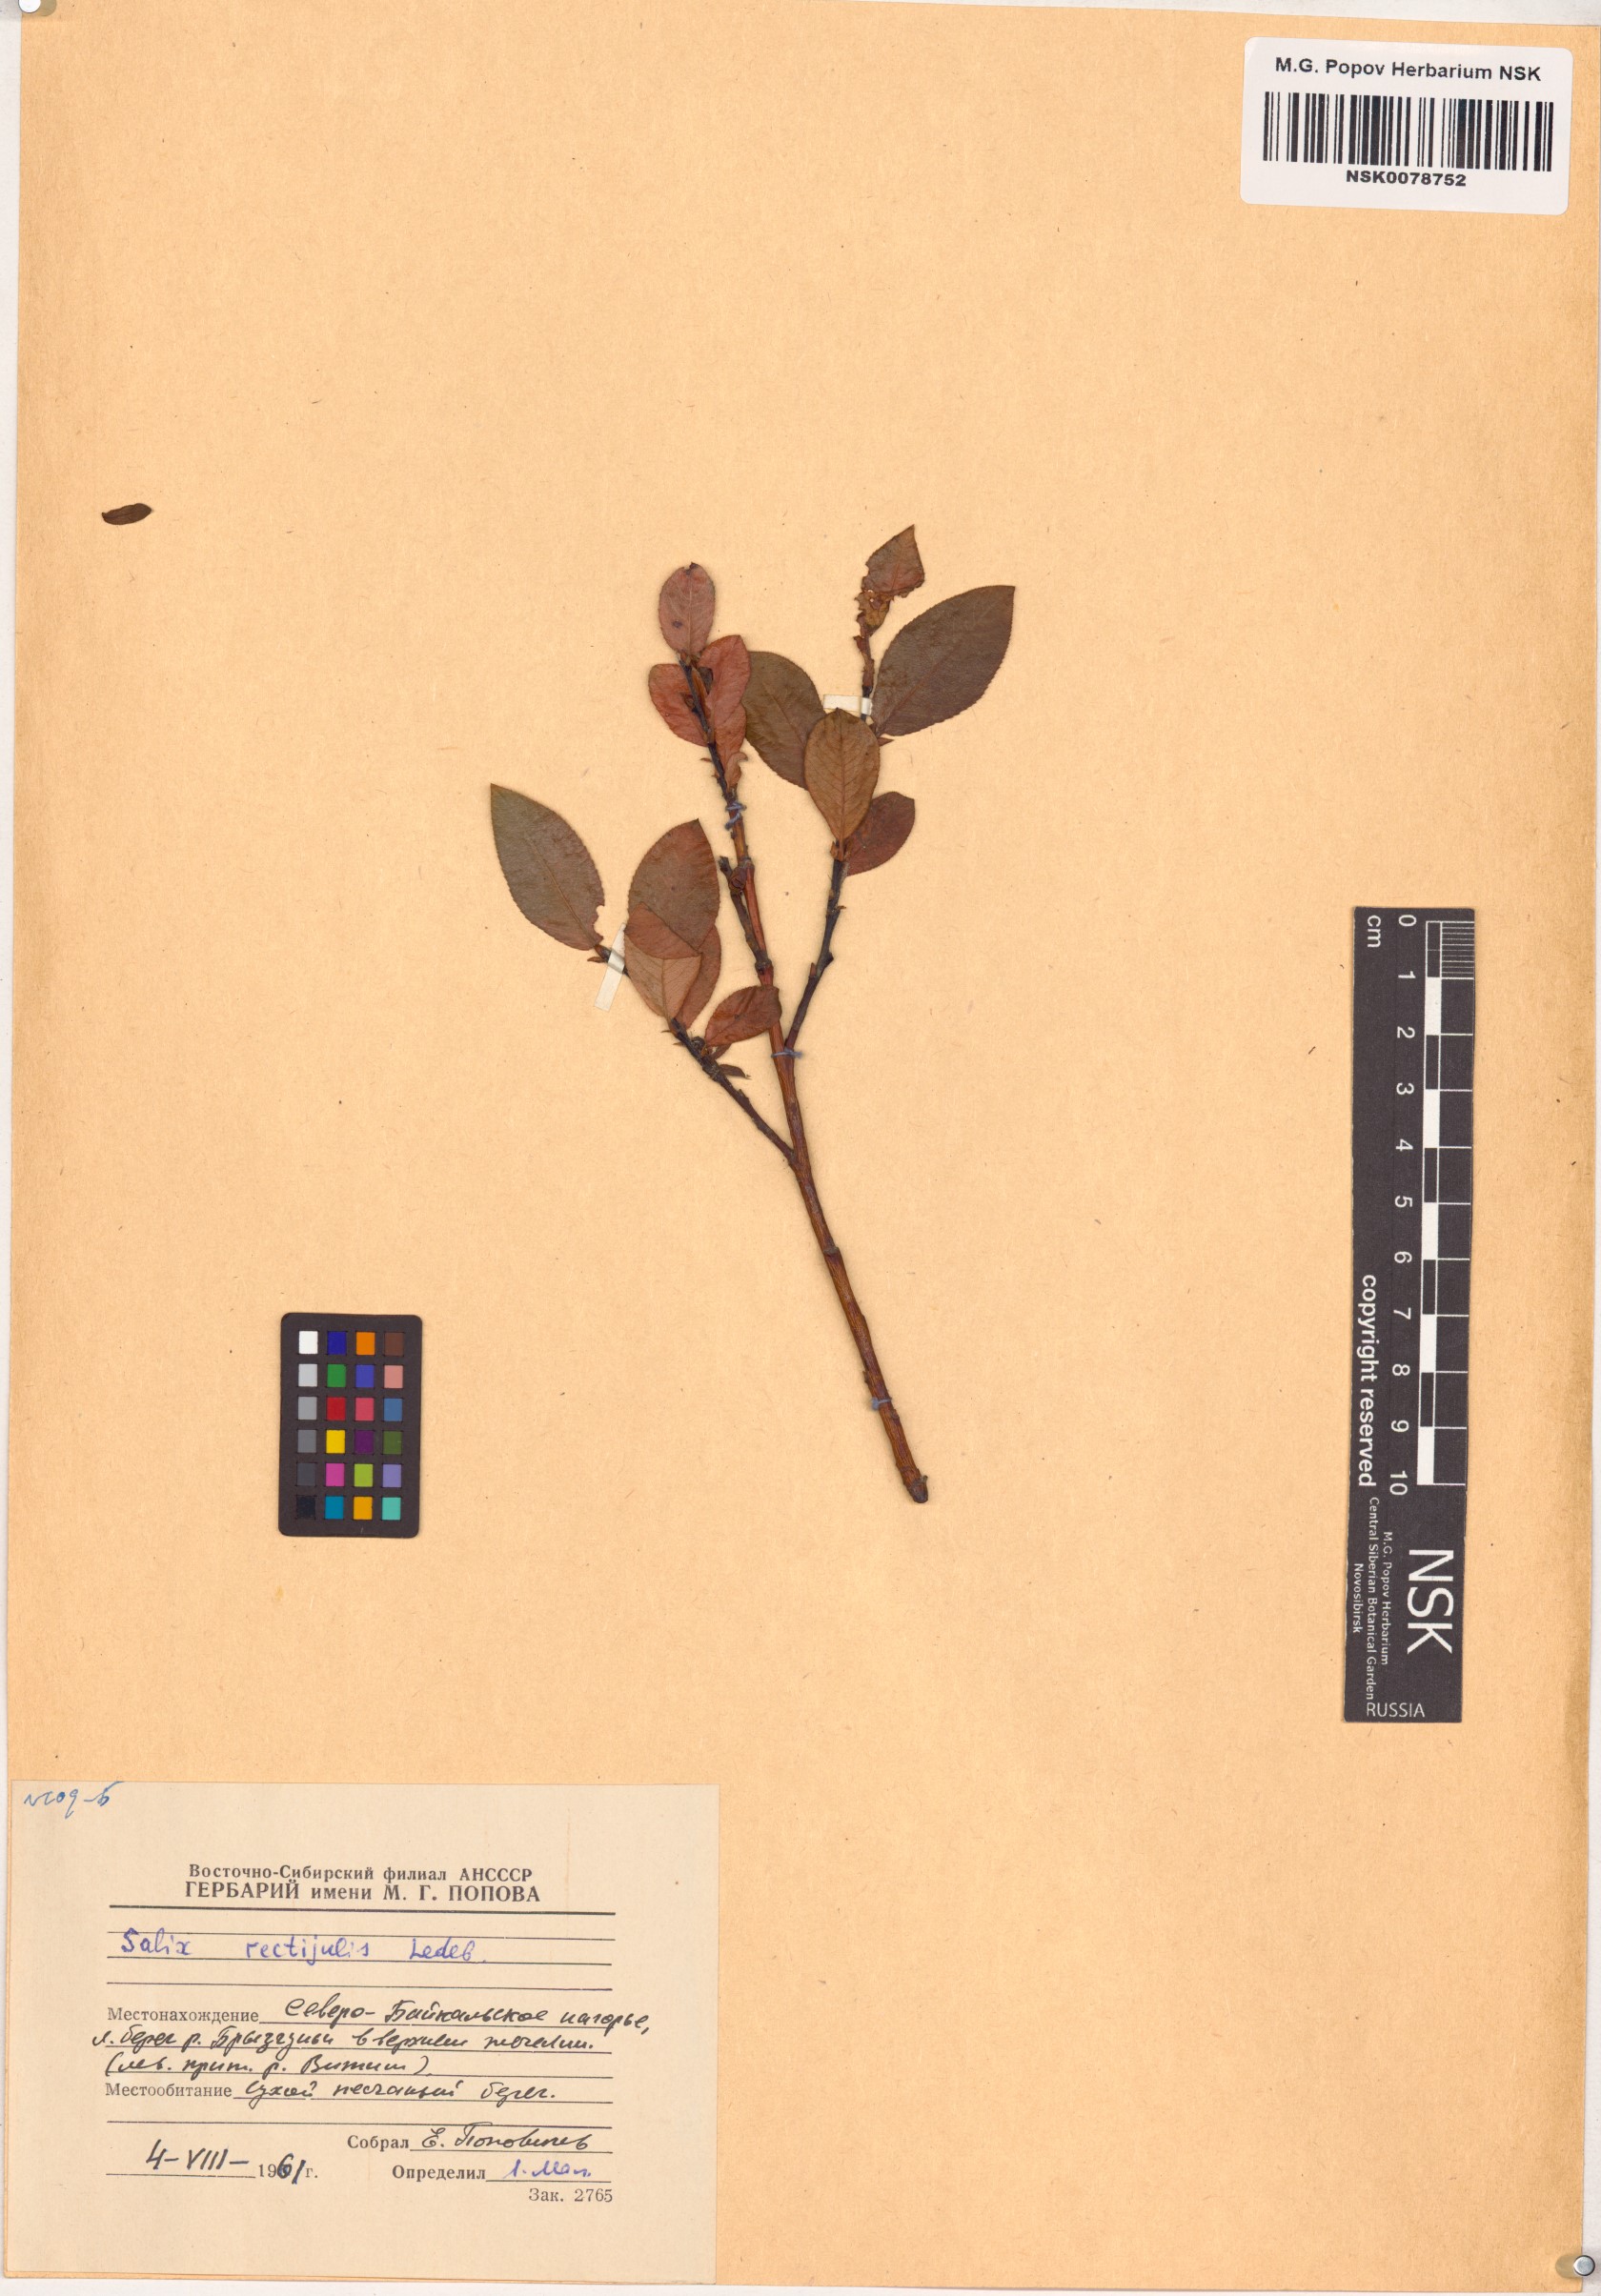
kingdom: Plantae
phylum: Tracheophyta
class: Magnoliopsida
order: Malpighiales
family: Salicaceae
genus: Salix
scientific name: Salix rectijulis
